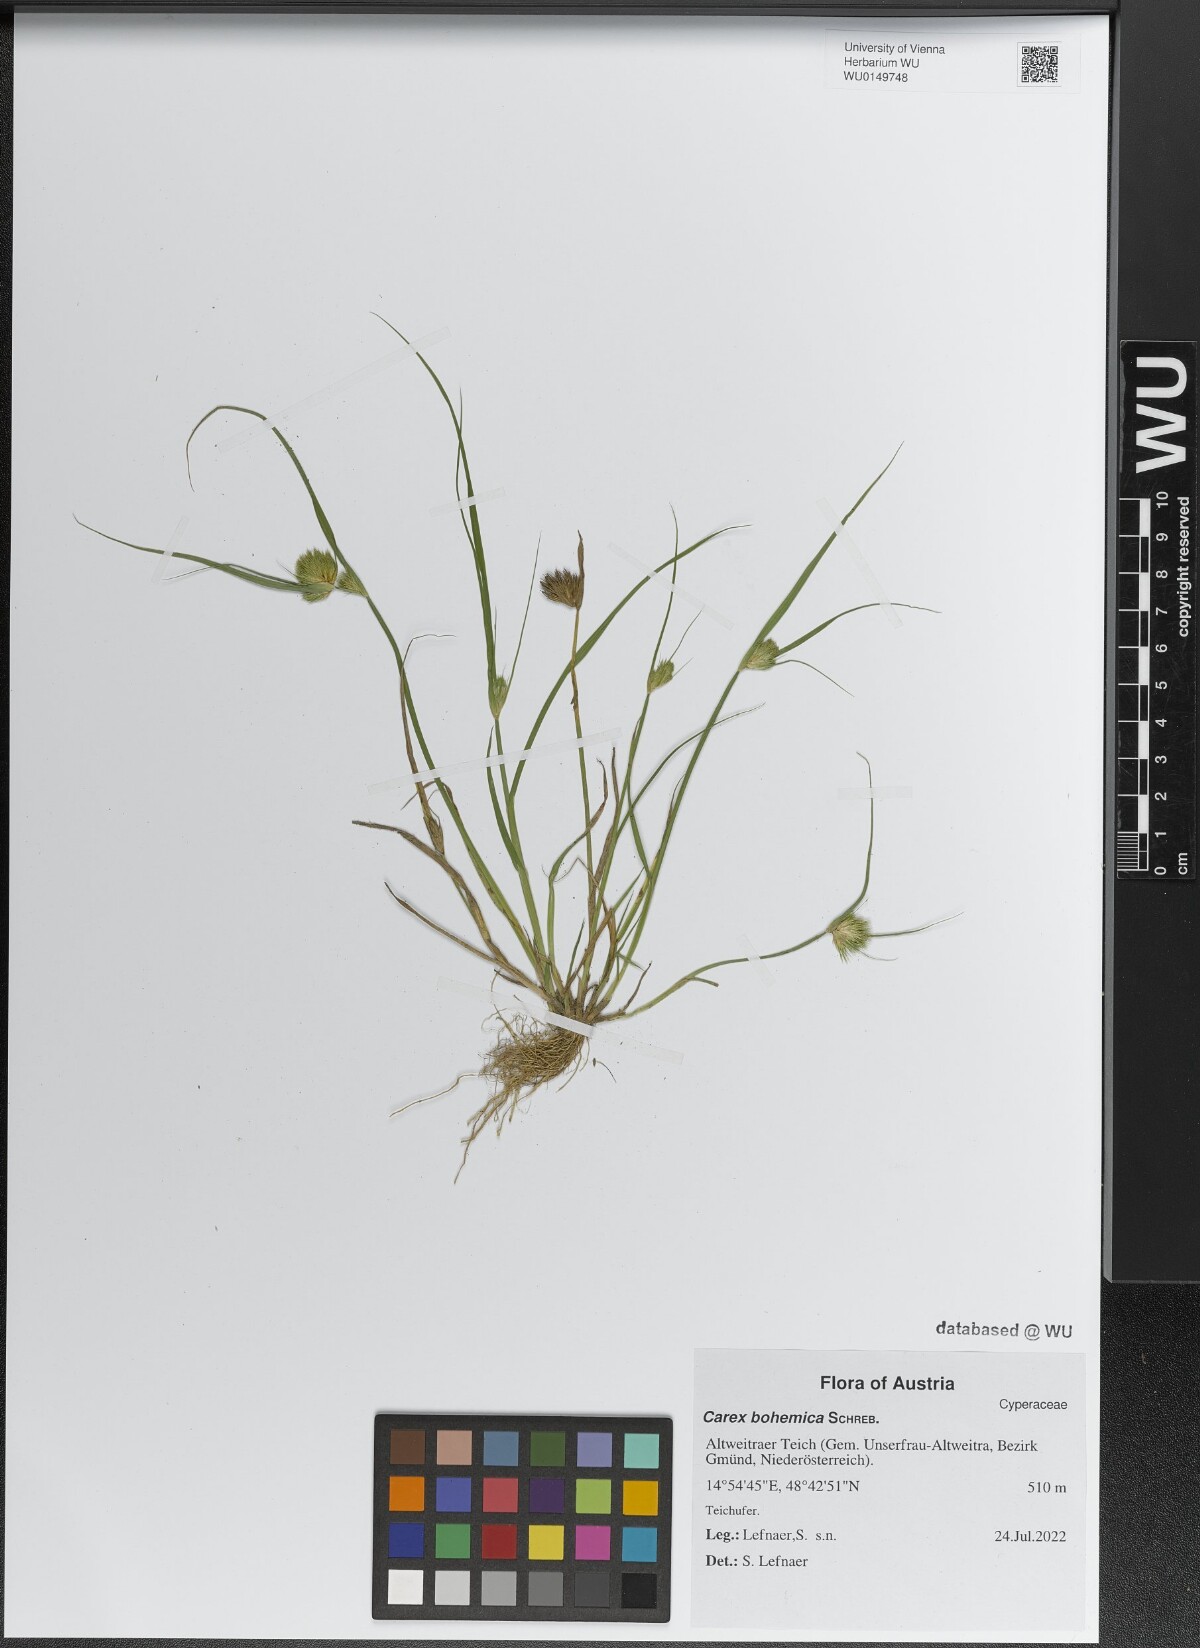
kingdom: Plantae
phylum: Tracheophyta
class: Liliopsida
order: Poales
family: Cyperaceae
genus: Carex
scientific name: Carex bohemica
